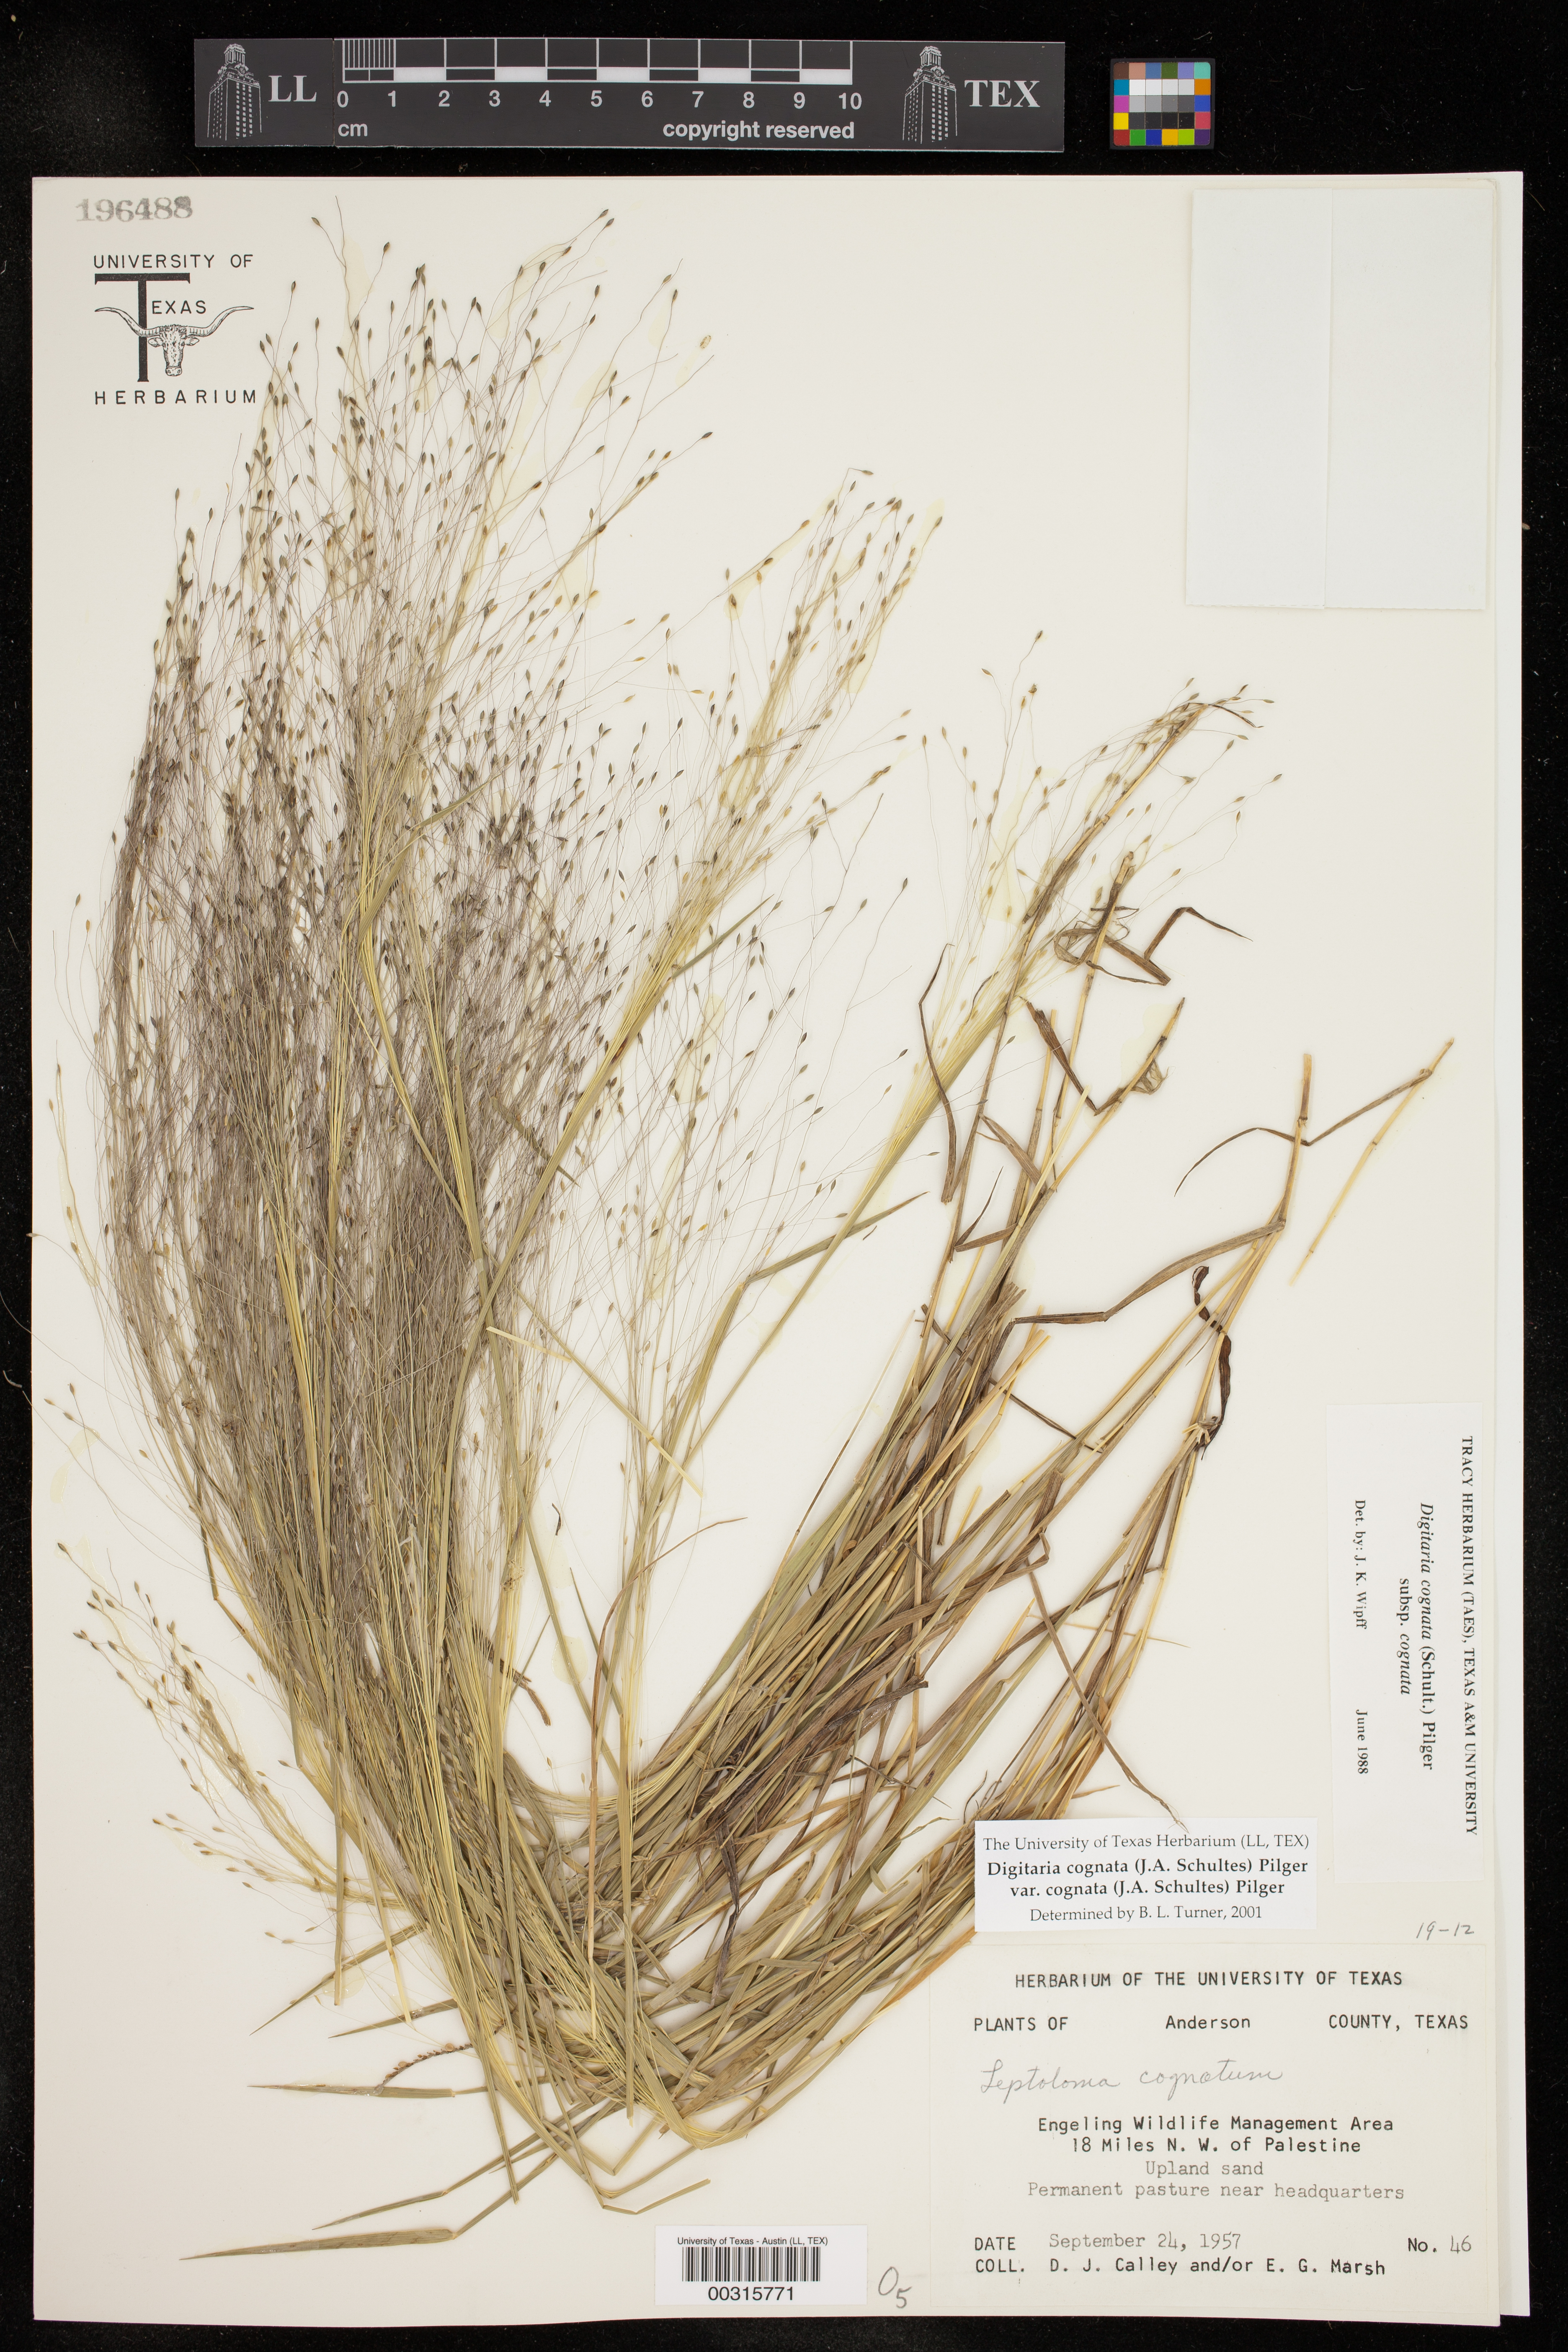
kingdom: Plantae
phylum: Tracheophyta
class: Liliopsida
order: Poales
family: Poaceae
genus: Digitaria
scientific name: Digitaria cognata
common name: Fall witchgrass
